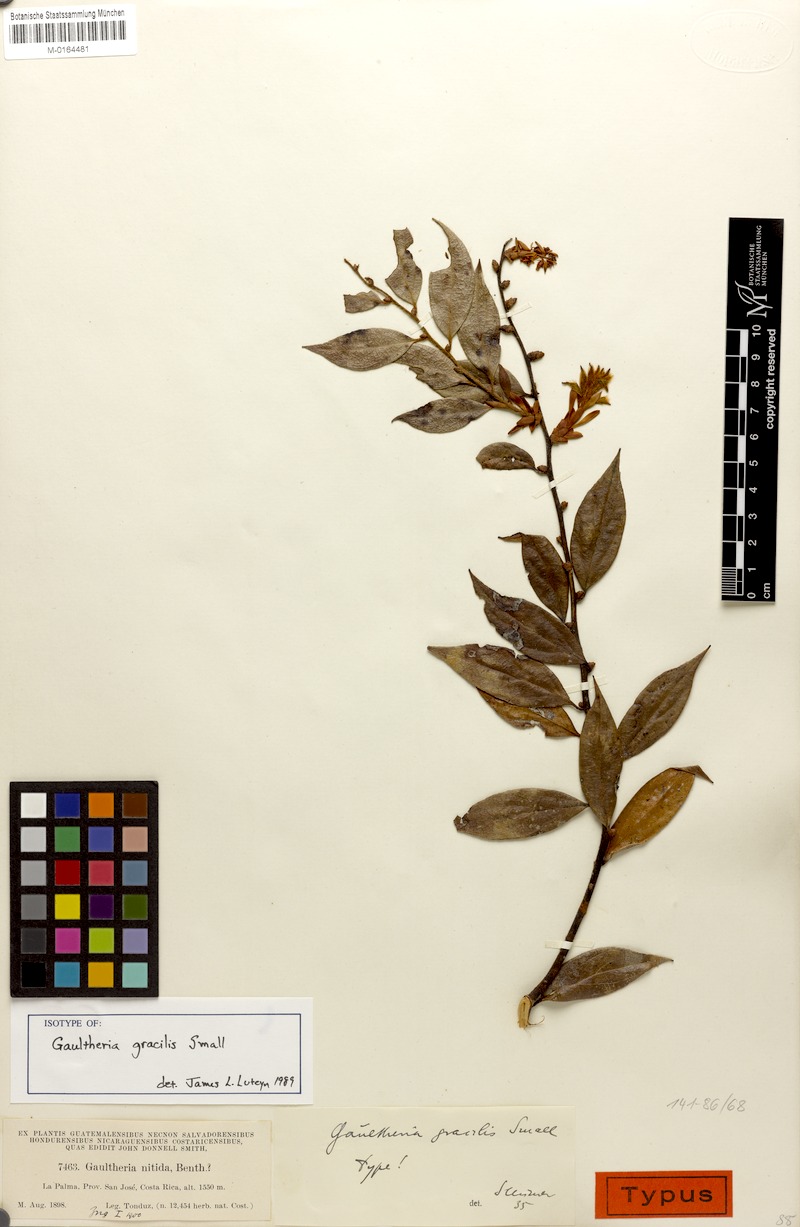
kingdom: Plantae
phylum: Tracheophyta
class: Magnoliopsida
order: Ericales
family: Ericaceae
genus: Gaultheria
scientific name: Gaultheria gracilis
